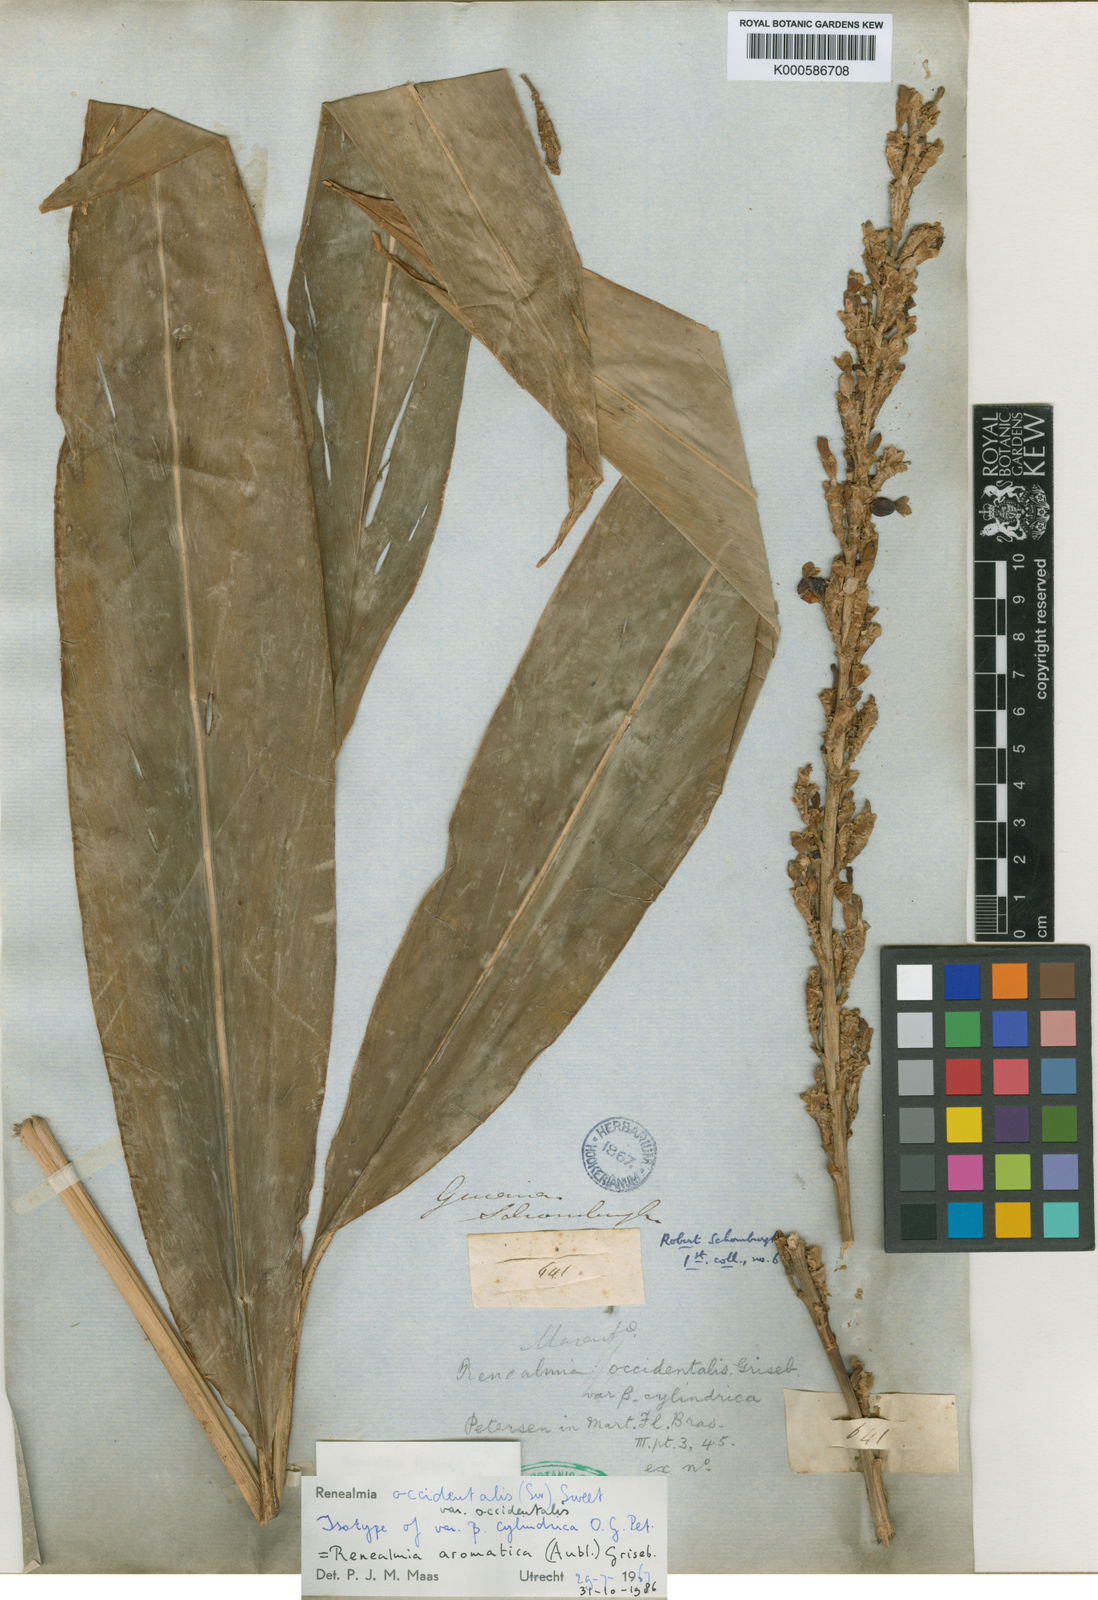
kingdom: Plantae
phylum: Tracheophyta
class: Liliopsida
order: Zingiberales
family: Zingiberaceae
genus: Renealmia
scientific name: Renealmia aromatica
